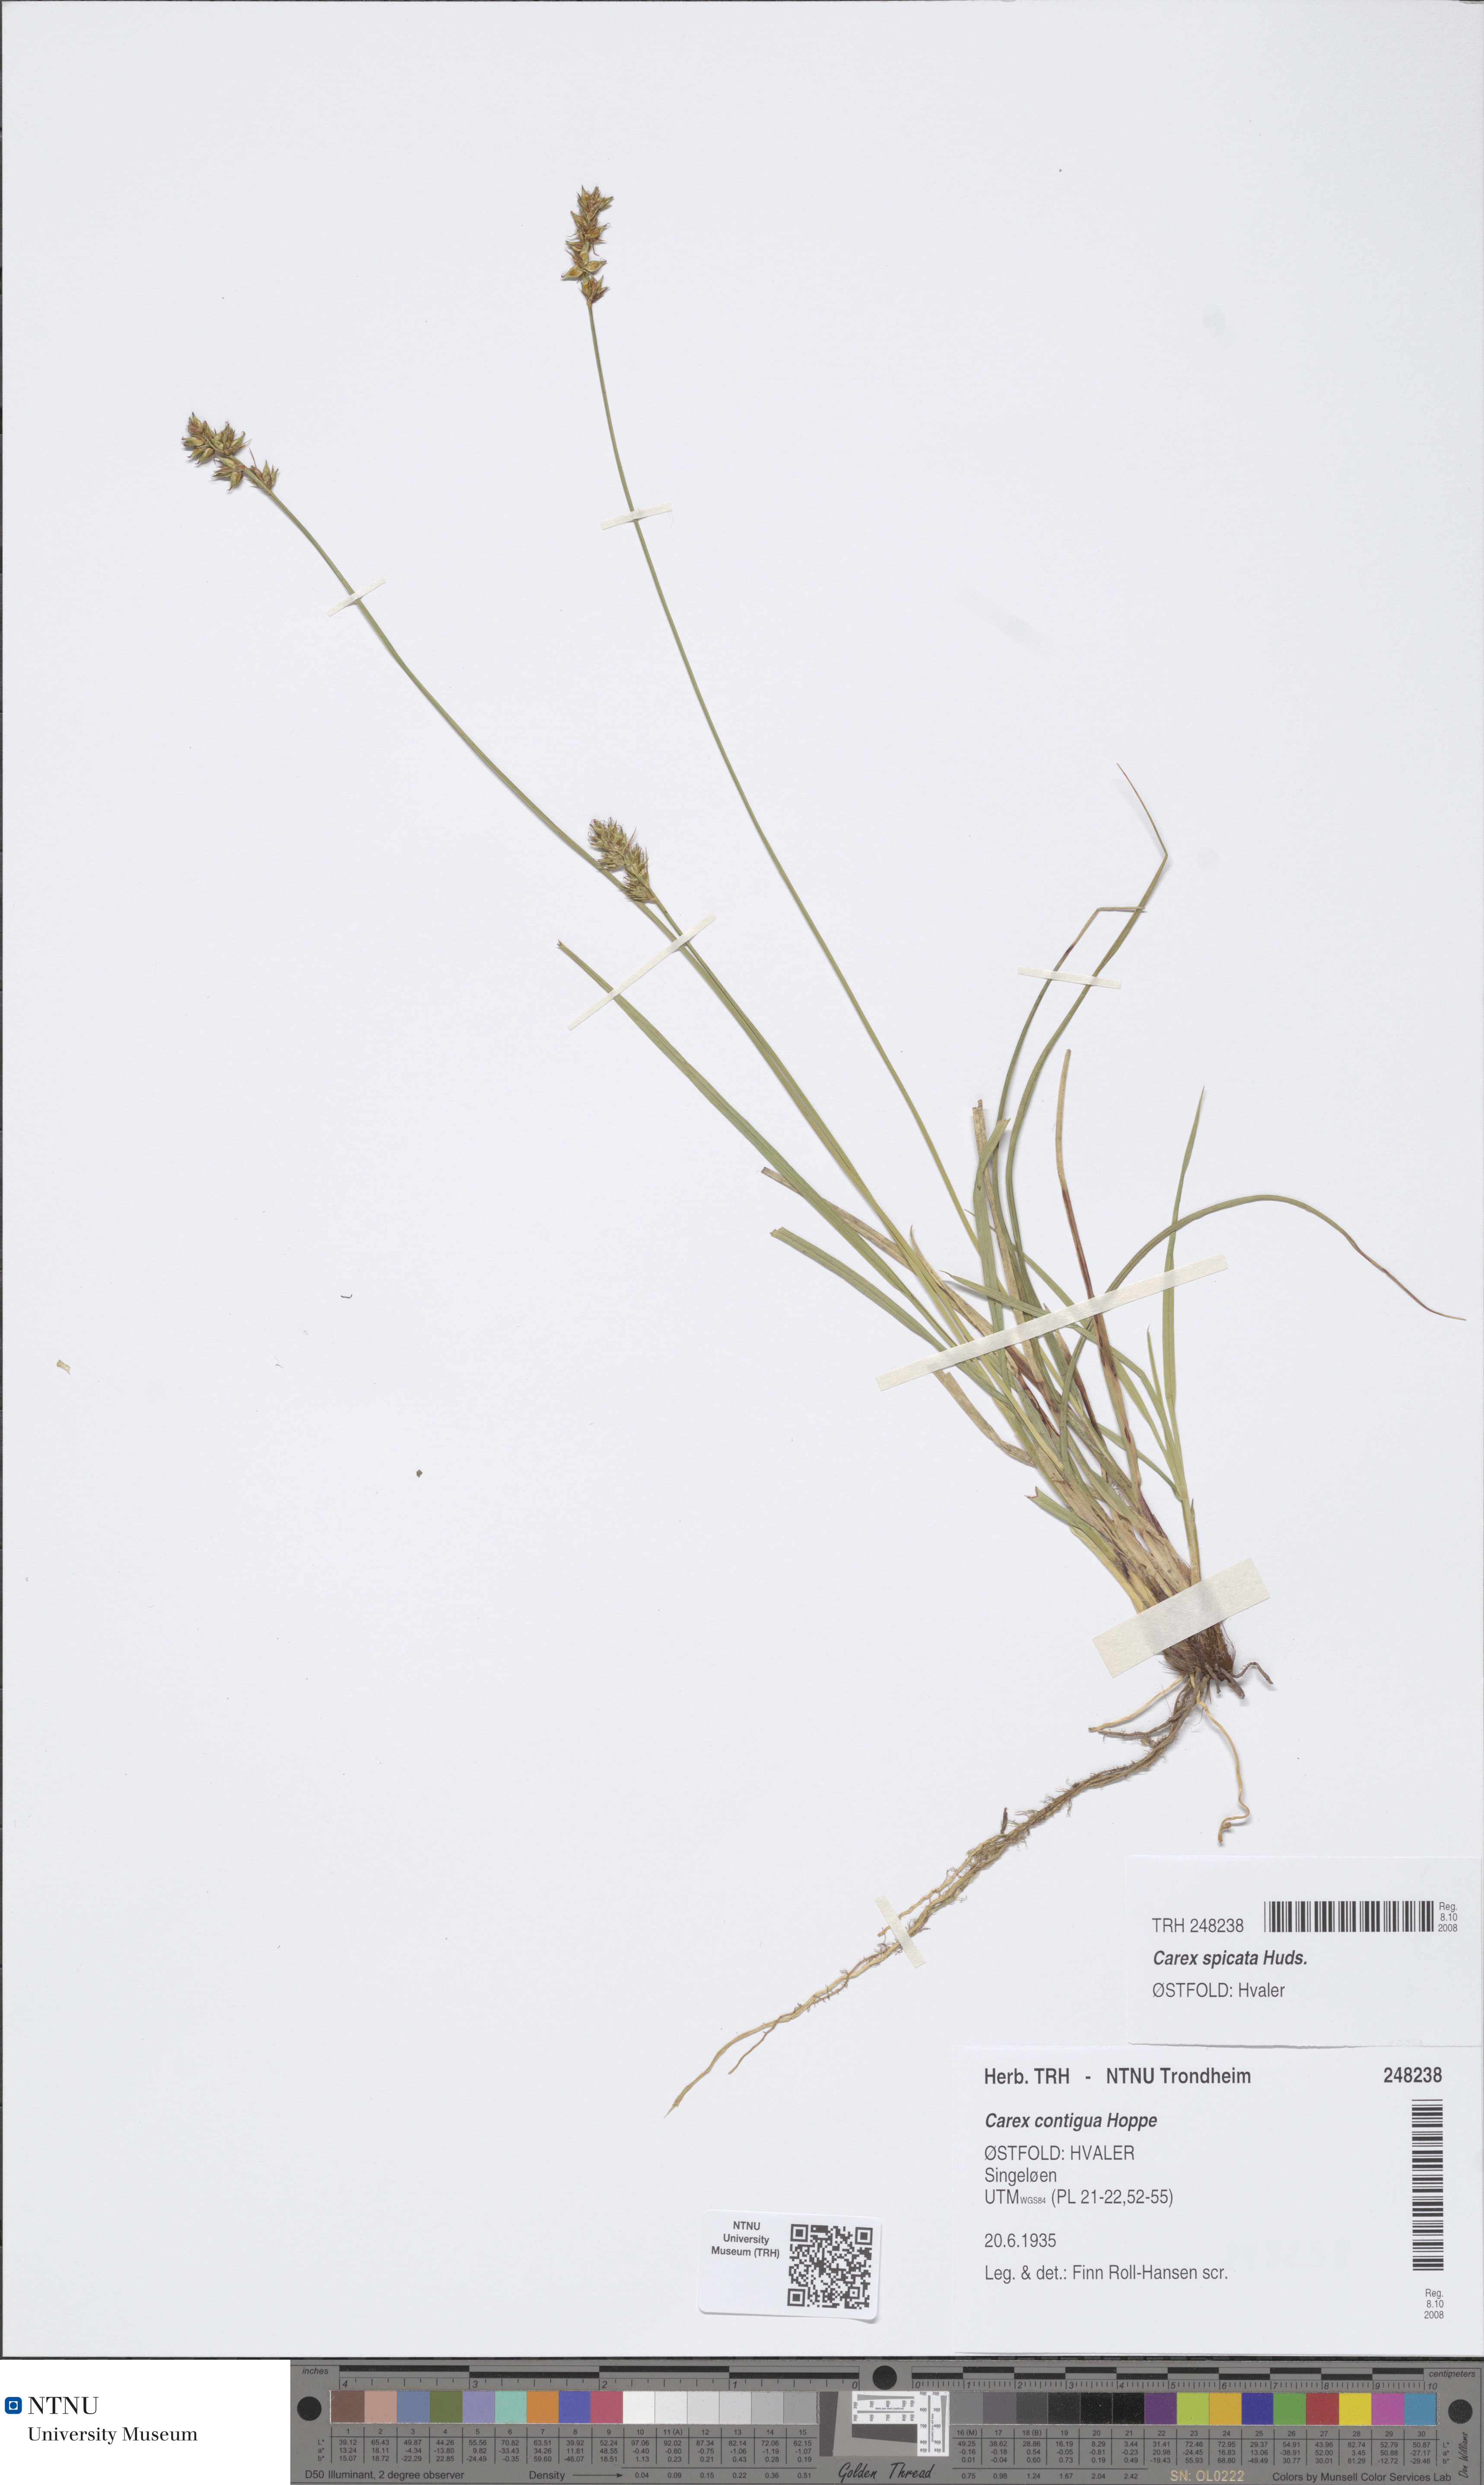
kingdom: Plantae
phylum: Tracheophyta
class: Liliopsida
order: Poales
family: Cyperaceae
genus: Carex
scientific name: Carex spicata
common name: Spiked sedge
